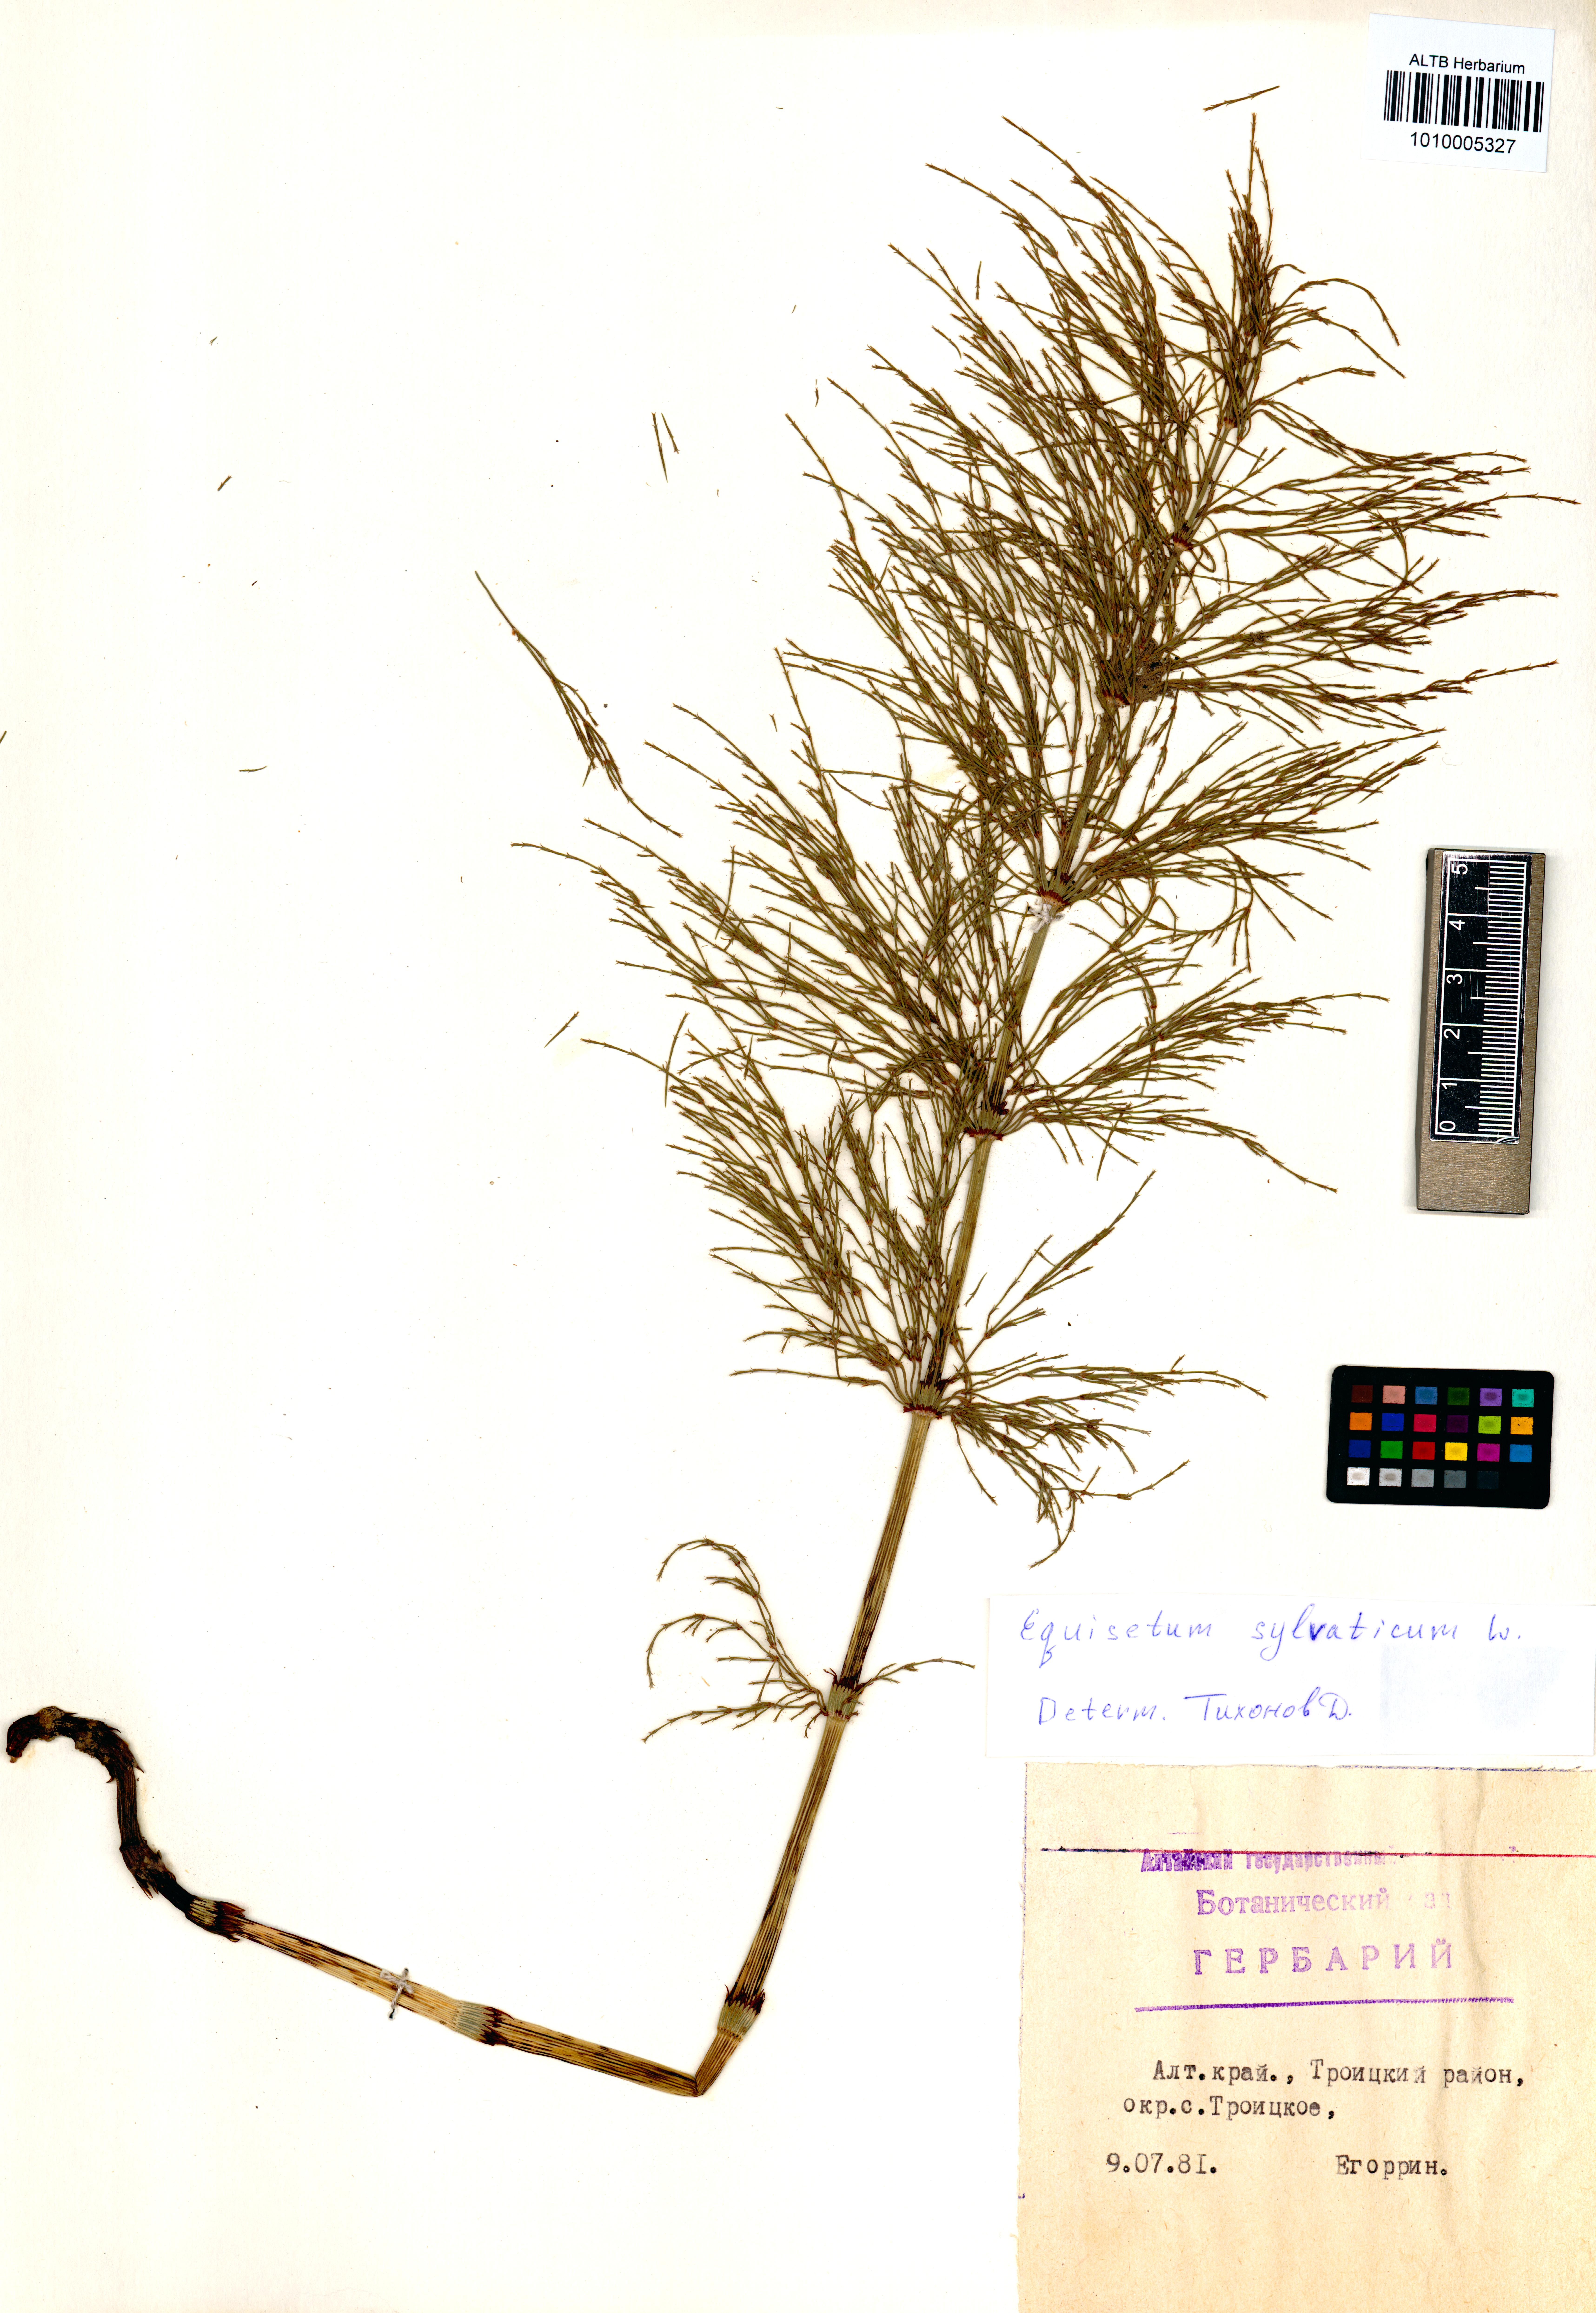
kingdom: Plantae
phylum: Tracheophyta
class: Polypodiopsida
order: Equisetales
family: Equisetaceae
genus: Equisetum
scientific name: Equisetum sylvaticum
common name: Wood horsetail
